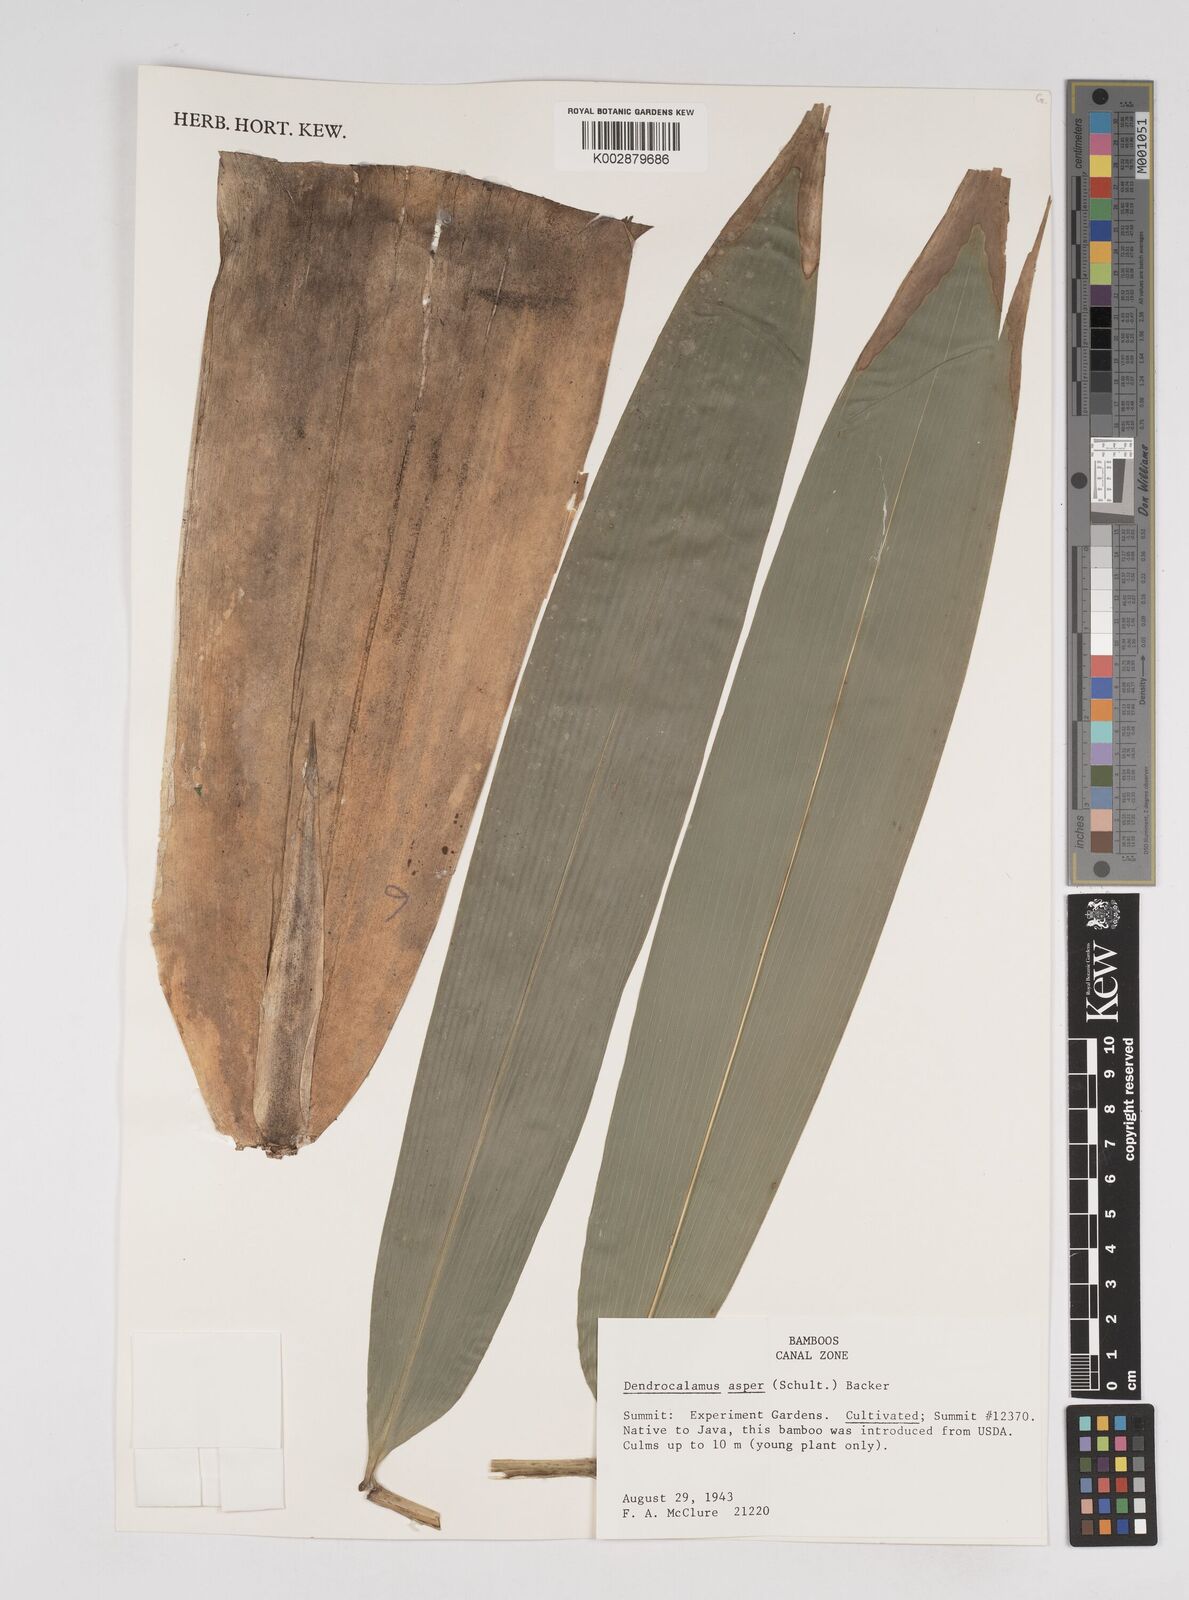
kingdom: Plantae
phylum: Tracheophyta
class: Liliopsida
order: Poales
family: Poaceae
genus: Dendrocalamus
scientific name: Dendrocalamus asper
